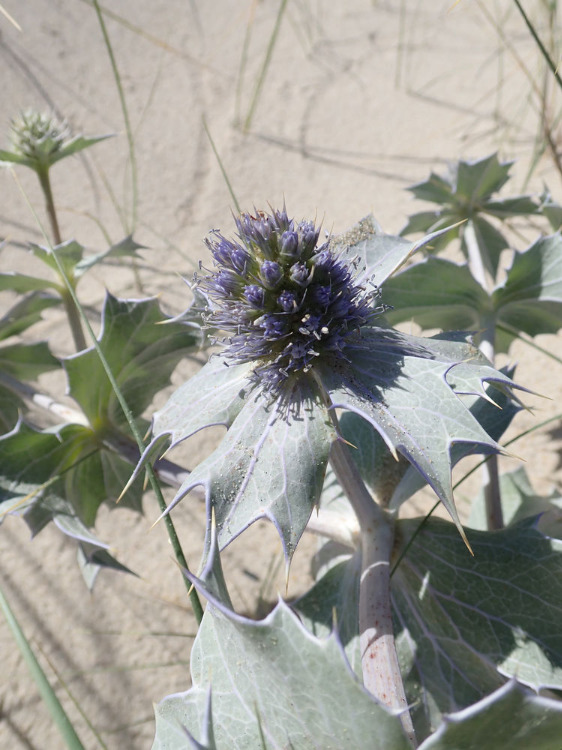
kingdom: Plantae
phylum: Tracheophyta
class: Magnoliopsida
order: Apiales
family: Apiaceae
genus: Eryngium
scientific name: Eryngium maritimum
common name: Strand-mandstro
